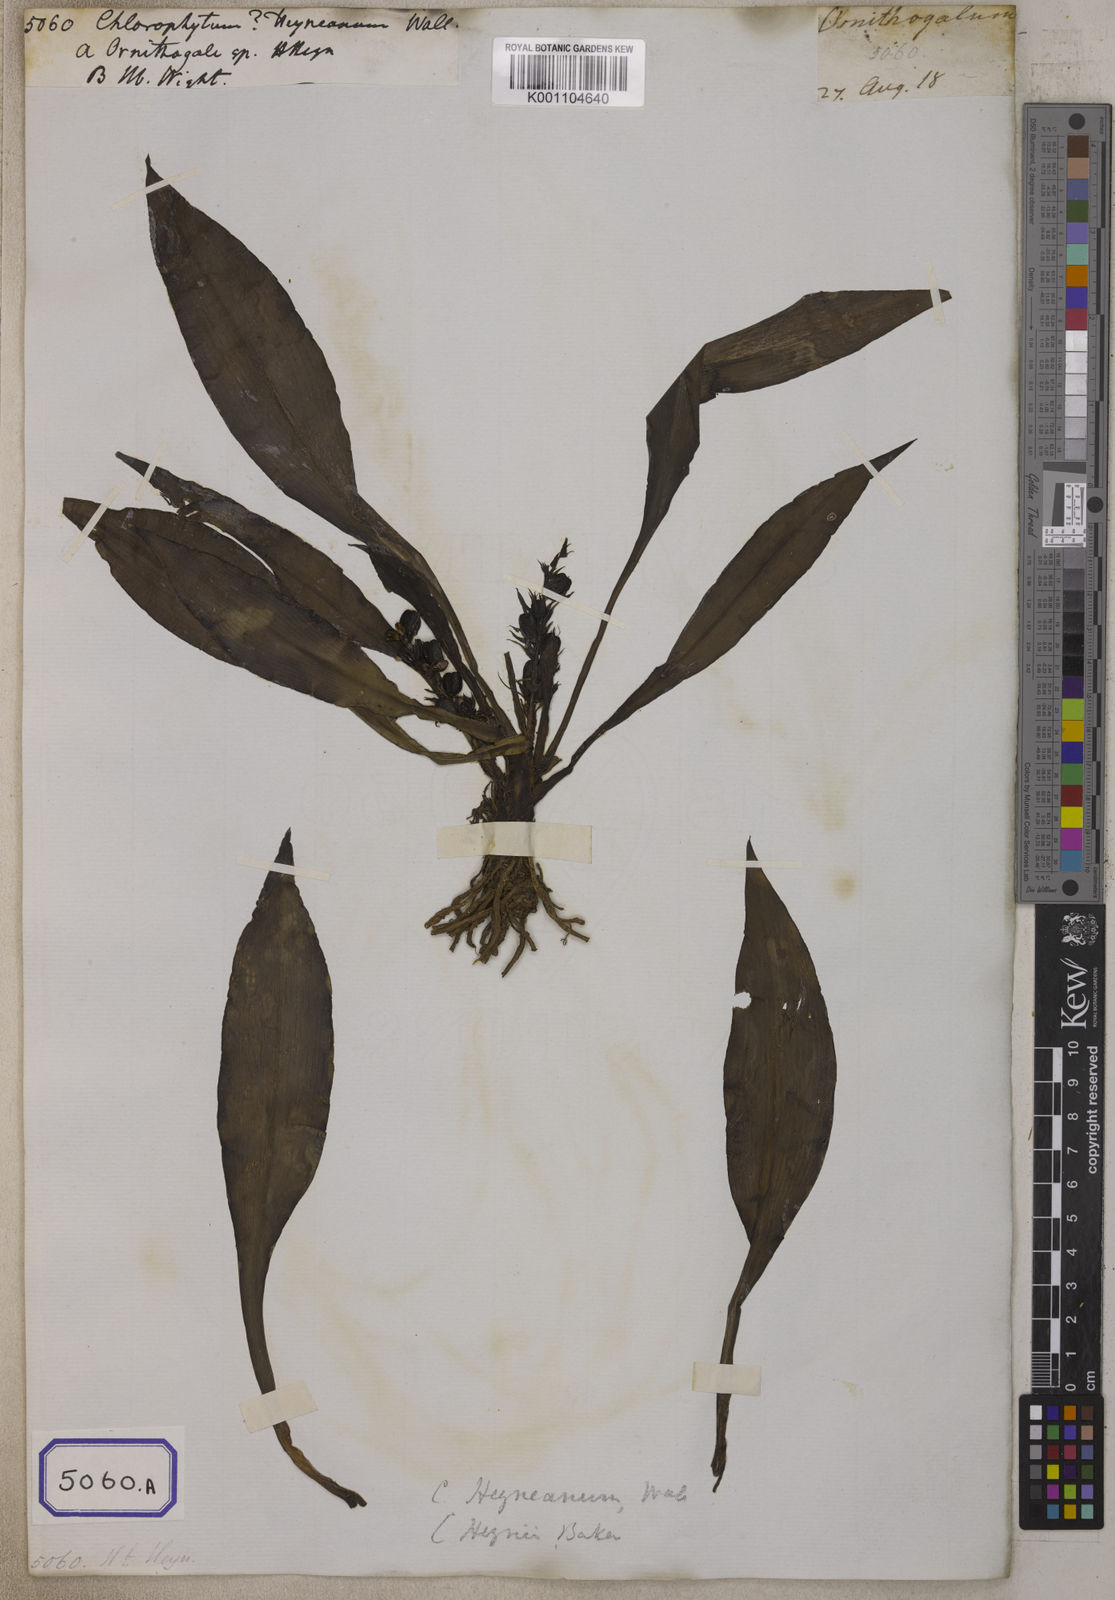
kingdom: Plantae
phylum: Tracheophyta
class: Liliopsida
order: Asparagales
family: Asparagaceae
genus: Chlorophytum
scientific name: Chlorophytum
